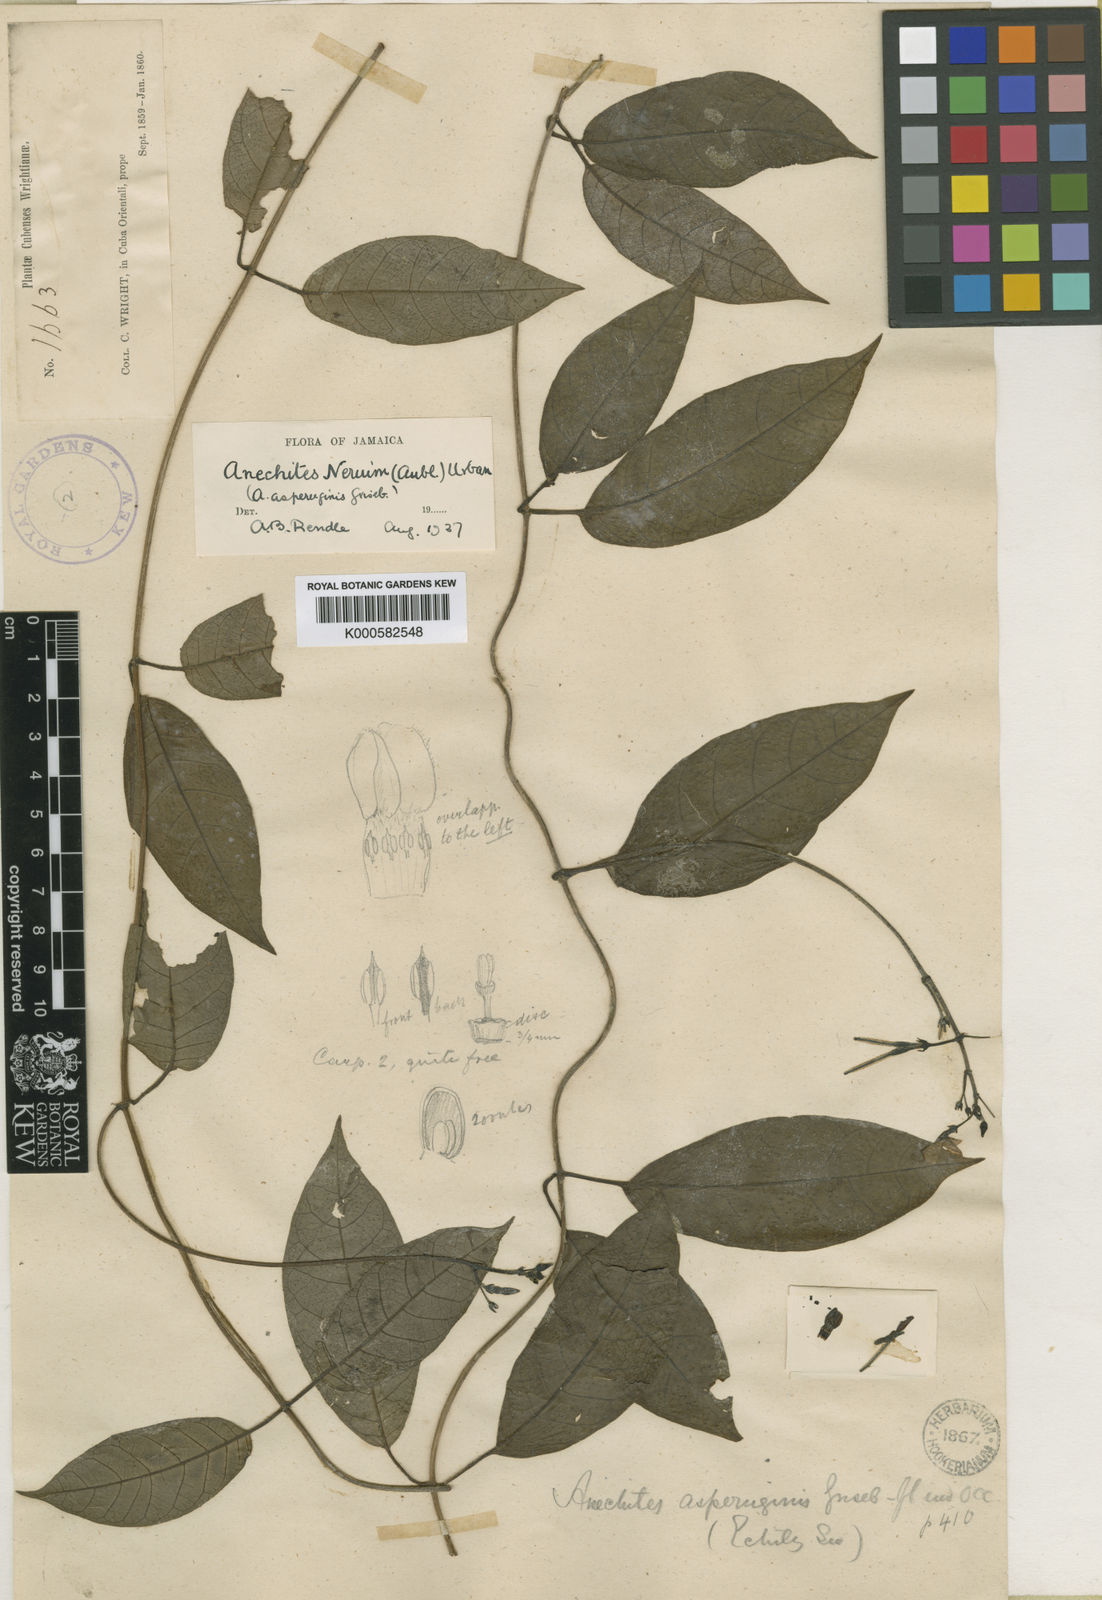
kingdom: Plantae
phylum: Tracheophyta
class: Magnoliopsida
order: Gentianales
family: Apocynaceae
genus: Anechites
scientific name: Anechites nerium
